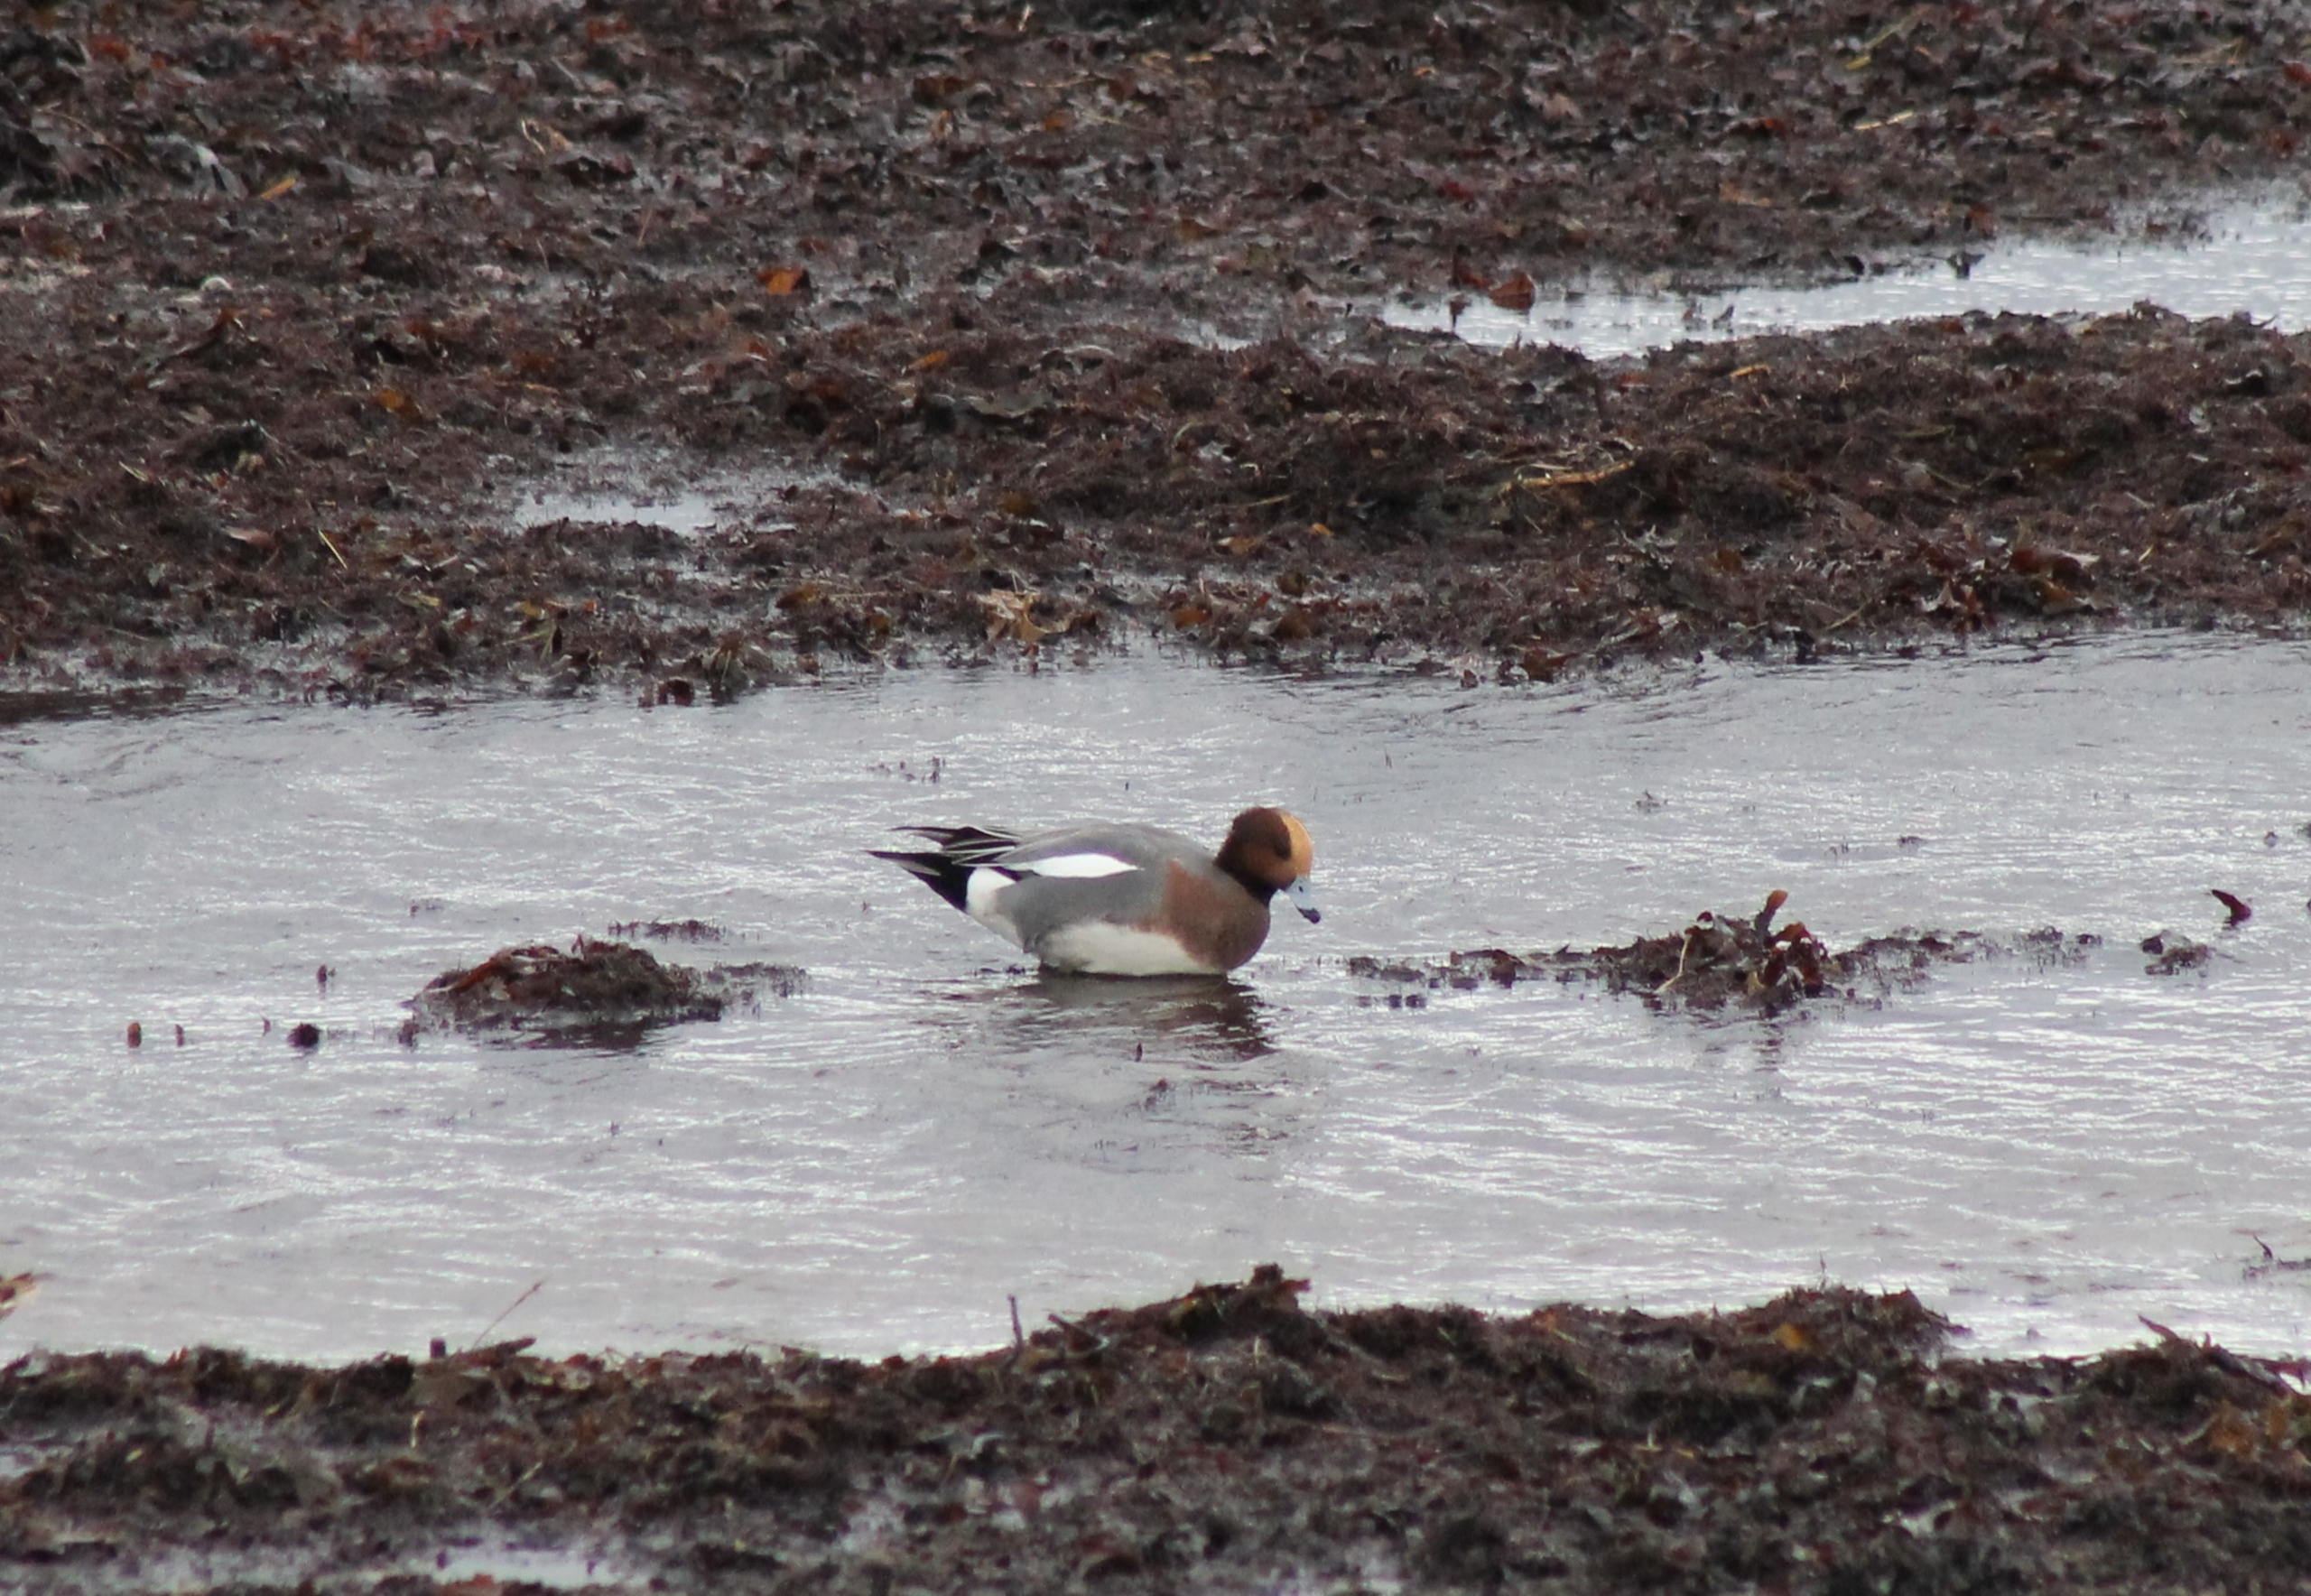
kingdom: Animalia
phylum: Chordata
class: Aves
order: Anseriformes
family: Anatidae
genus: Mareca
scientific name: Mareca penelope
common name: Pibeand
